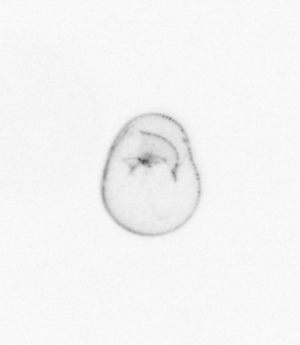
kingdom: Chromista
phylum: Myzozoa
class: Dinophyceae
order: Noctilucales
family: Noctilucaceae
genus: Noctiluca
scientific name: Noctiluca scintillans
